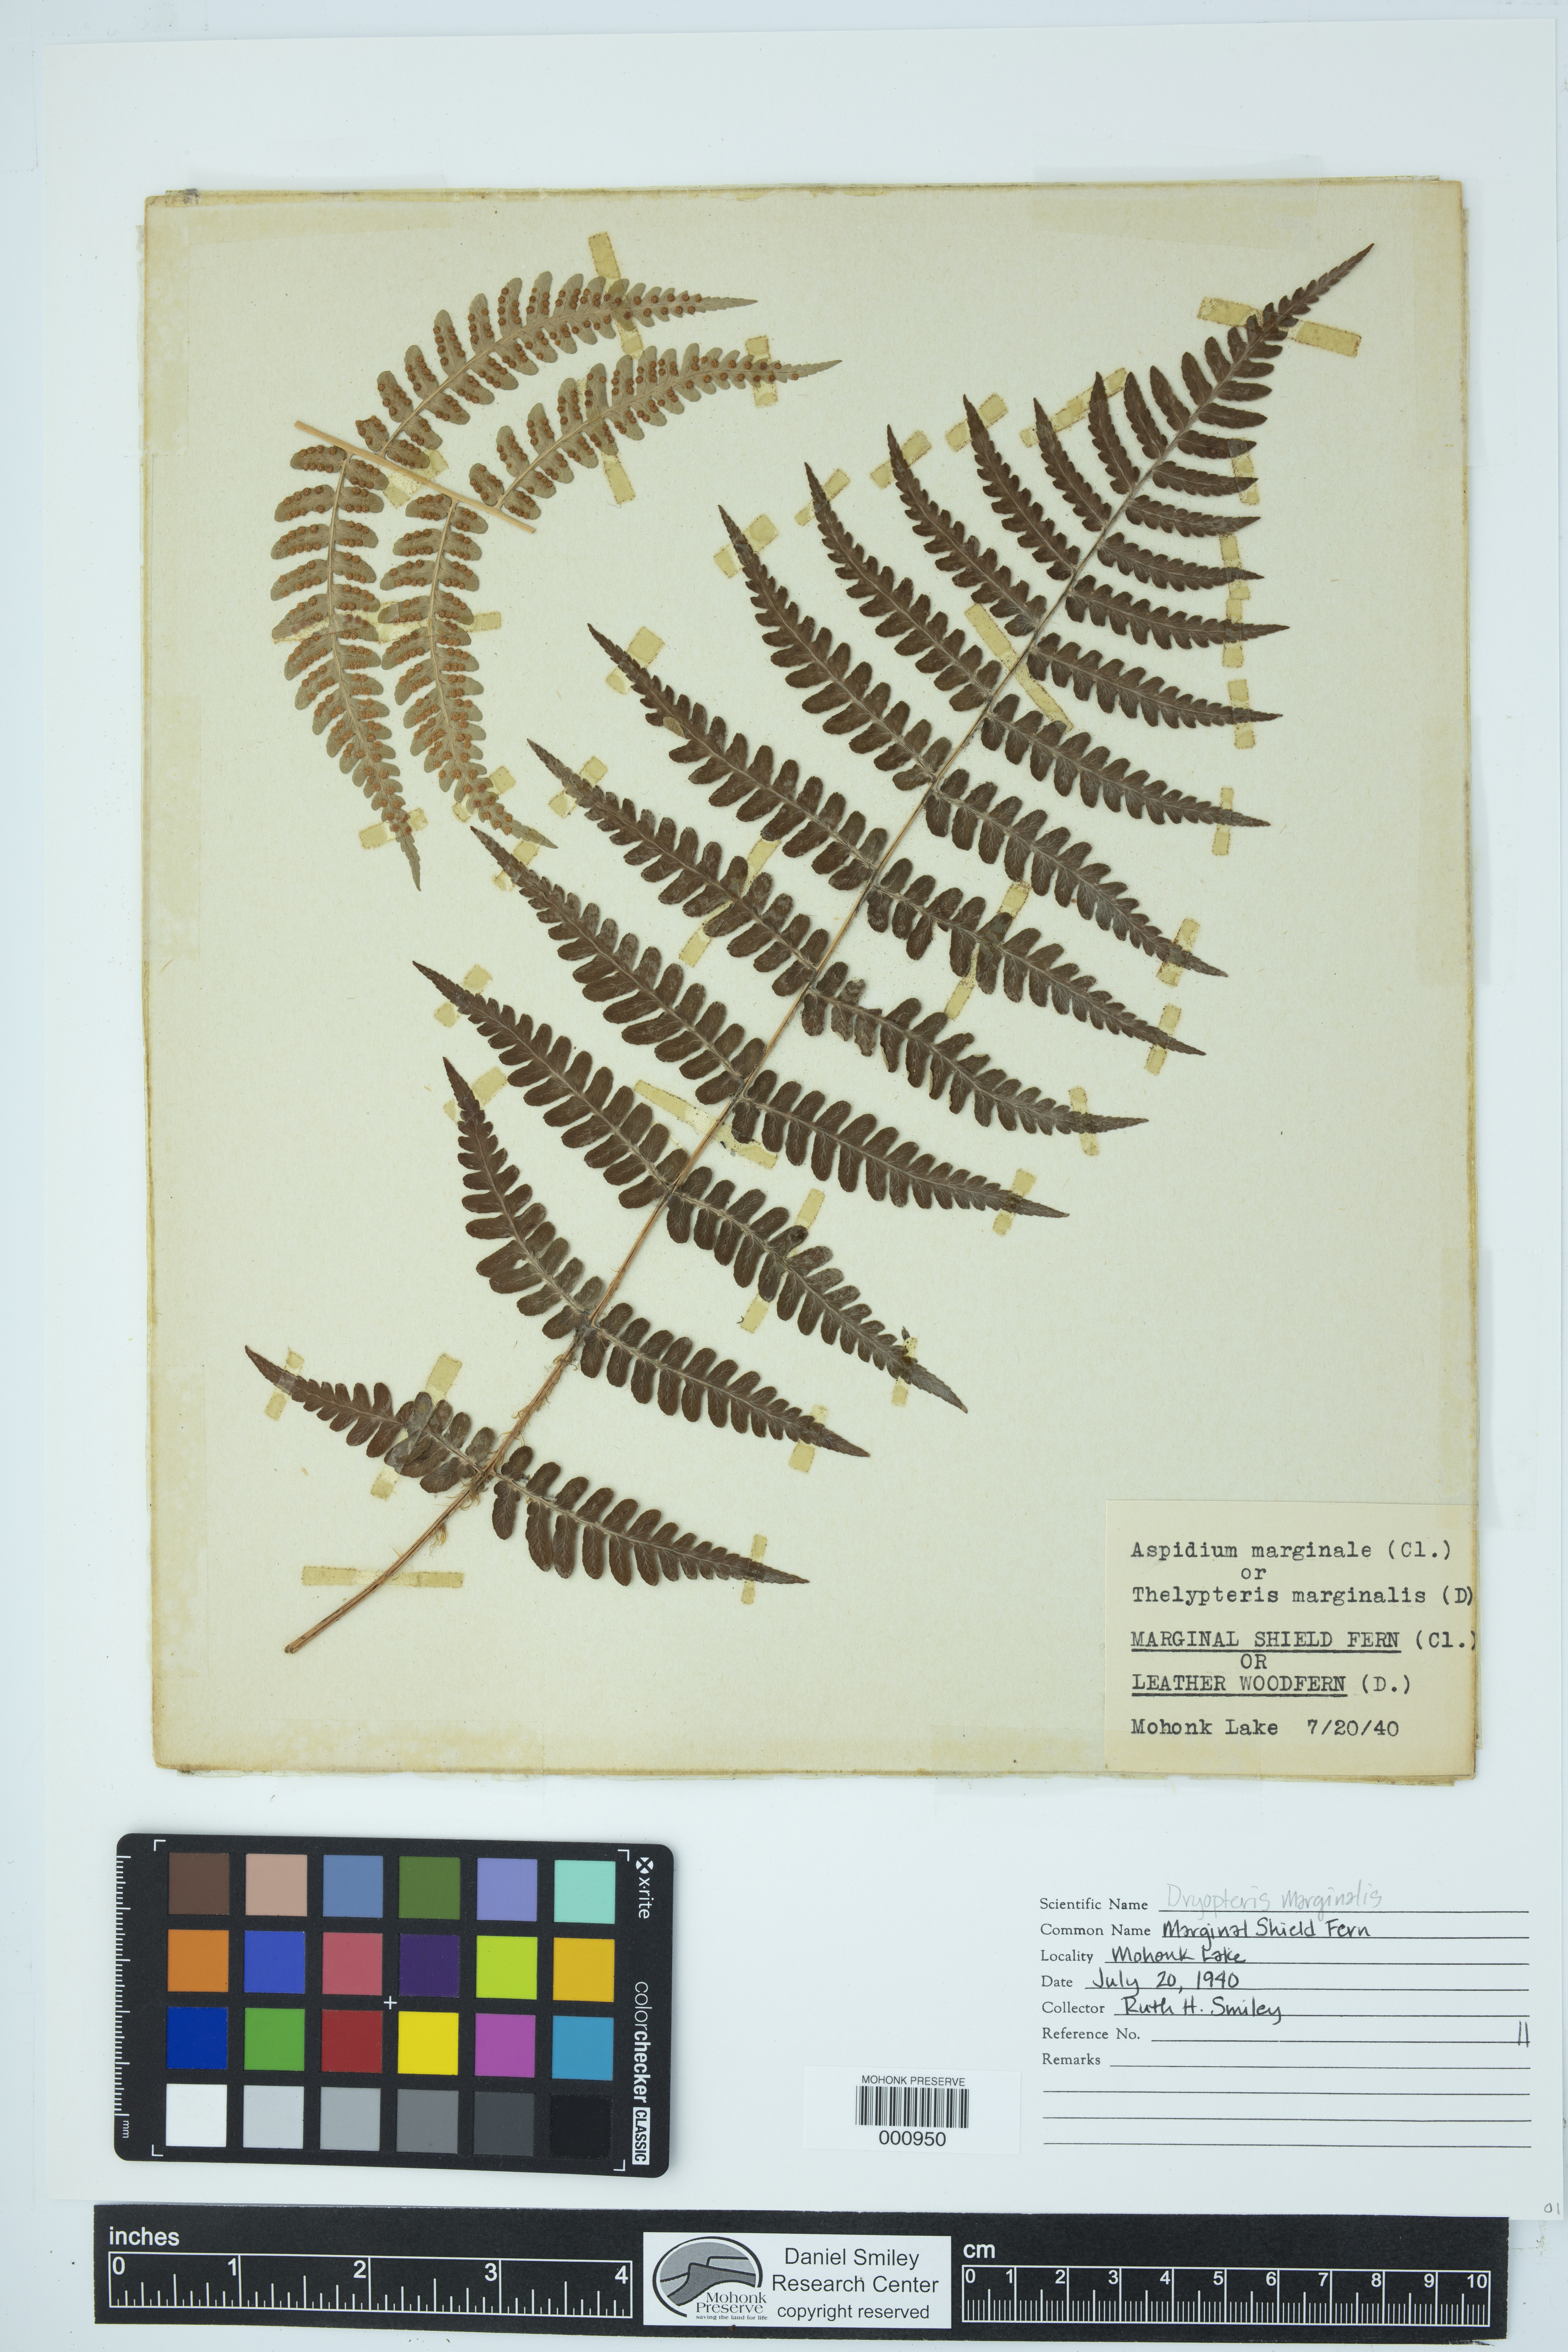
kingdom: Plantae
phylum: Tracheophyta
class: Polypodiopsida
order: Polypodiales
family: Dryopteridaceae
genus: Dryopteris
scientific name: Dryopteris marginalis
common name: Marginal wood fern
